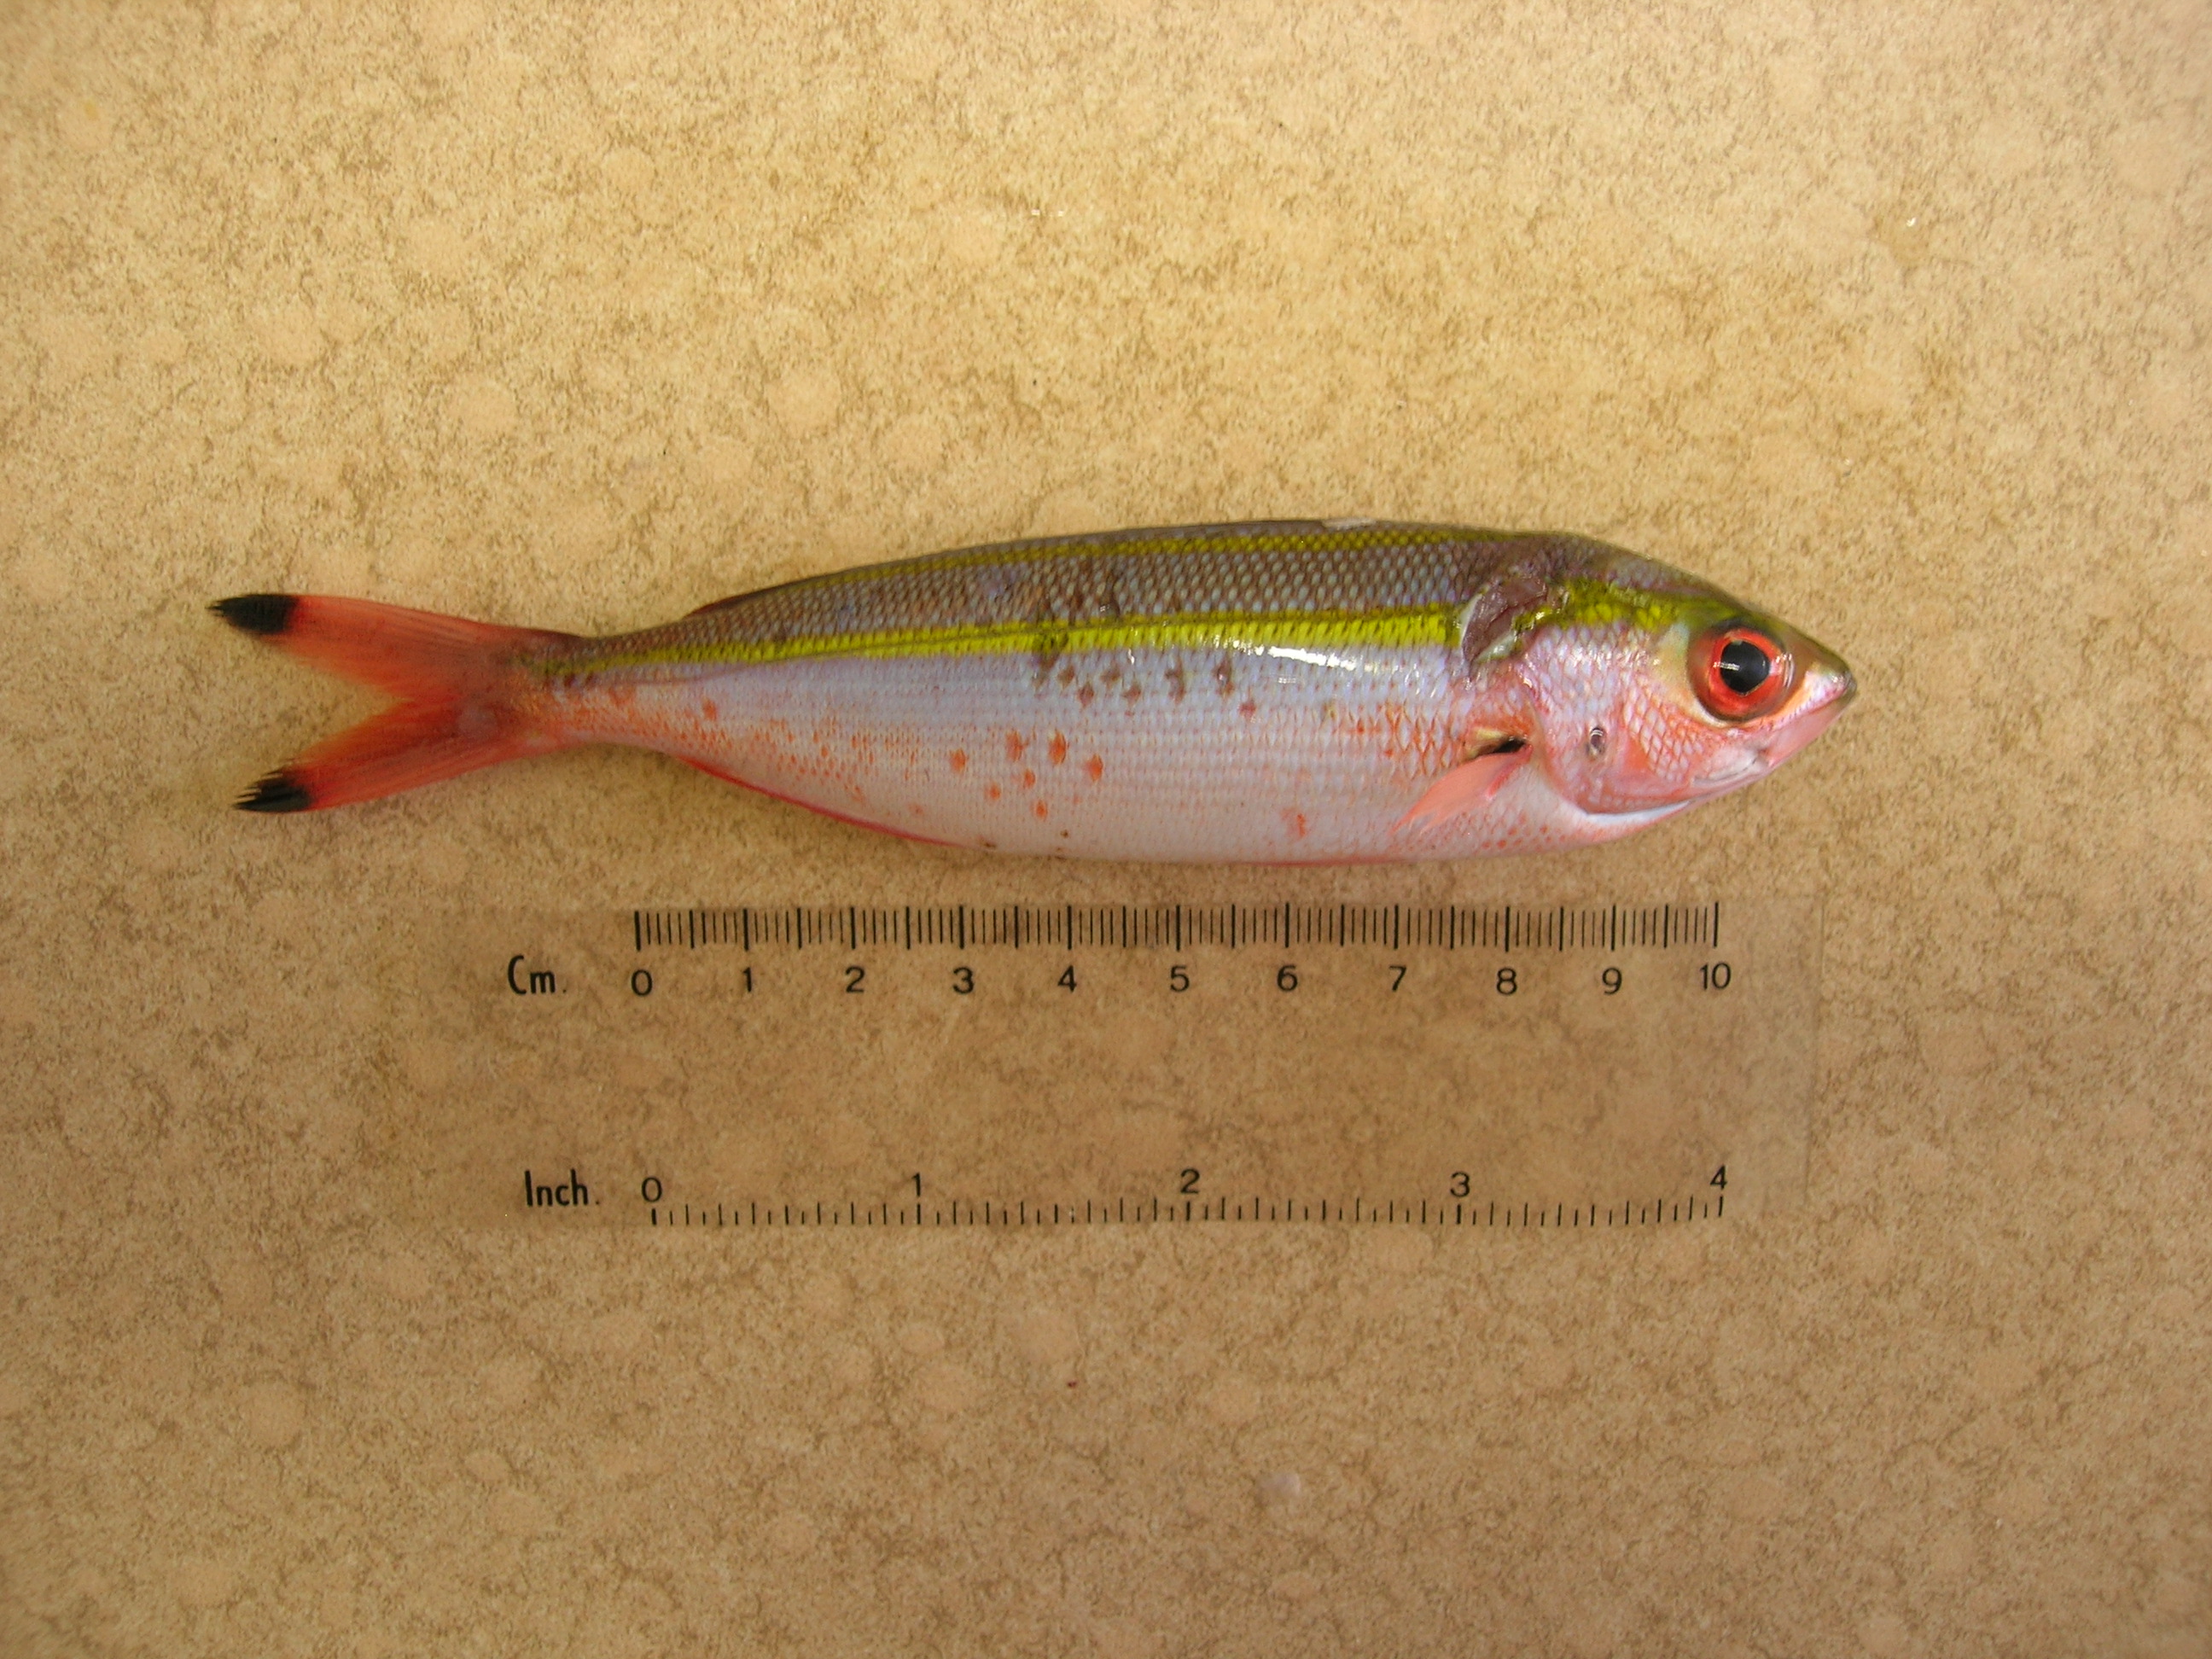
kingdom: Animalia
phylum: Chordata
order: Perciformes
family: Caesionidae
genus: Pterocaesio
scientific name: Pterocaesio marri
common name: Marr's fusilier
